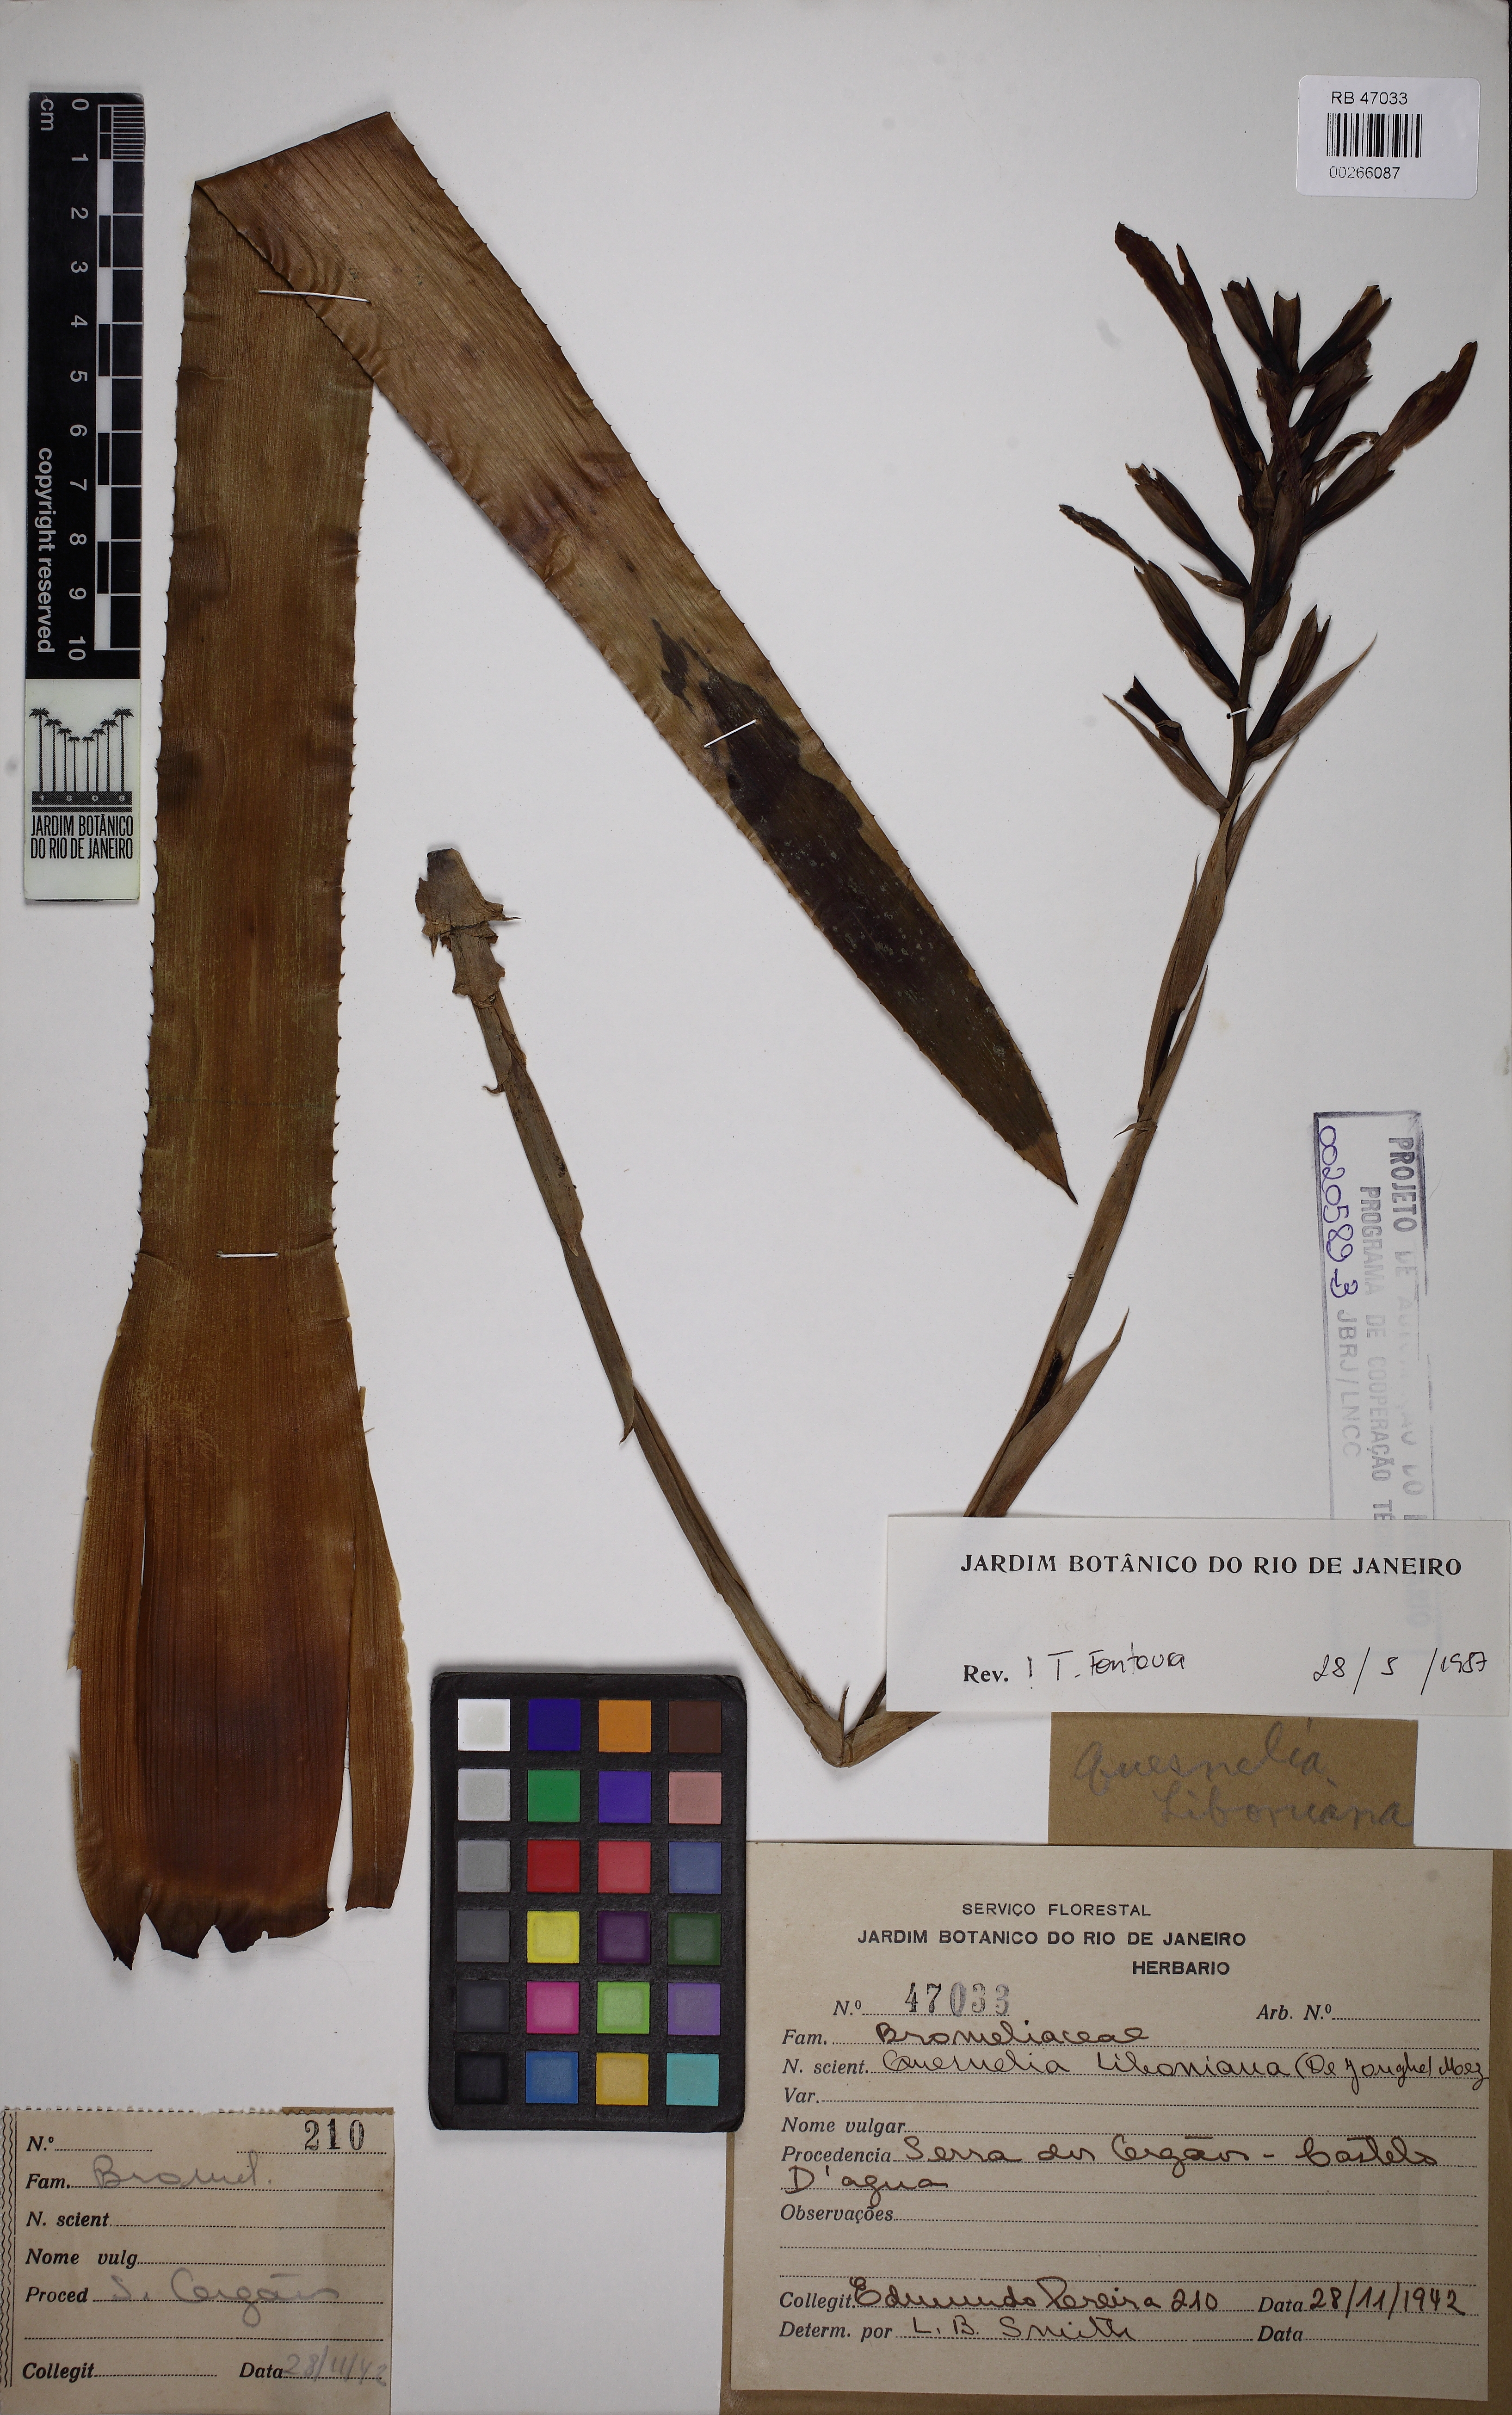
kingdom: Plantae
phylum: Tracheophyta
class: Liliopsida
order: Poales
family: Bromeliaceae
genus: Quesnelia
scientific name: Quesnelia liboniana
